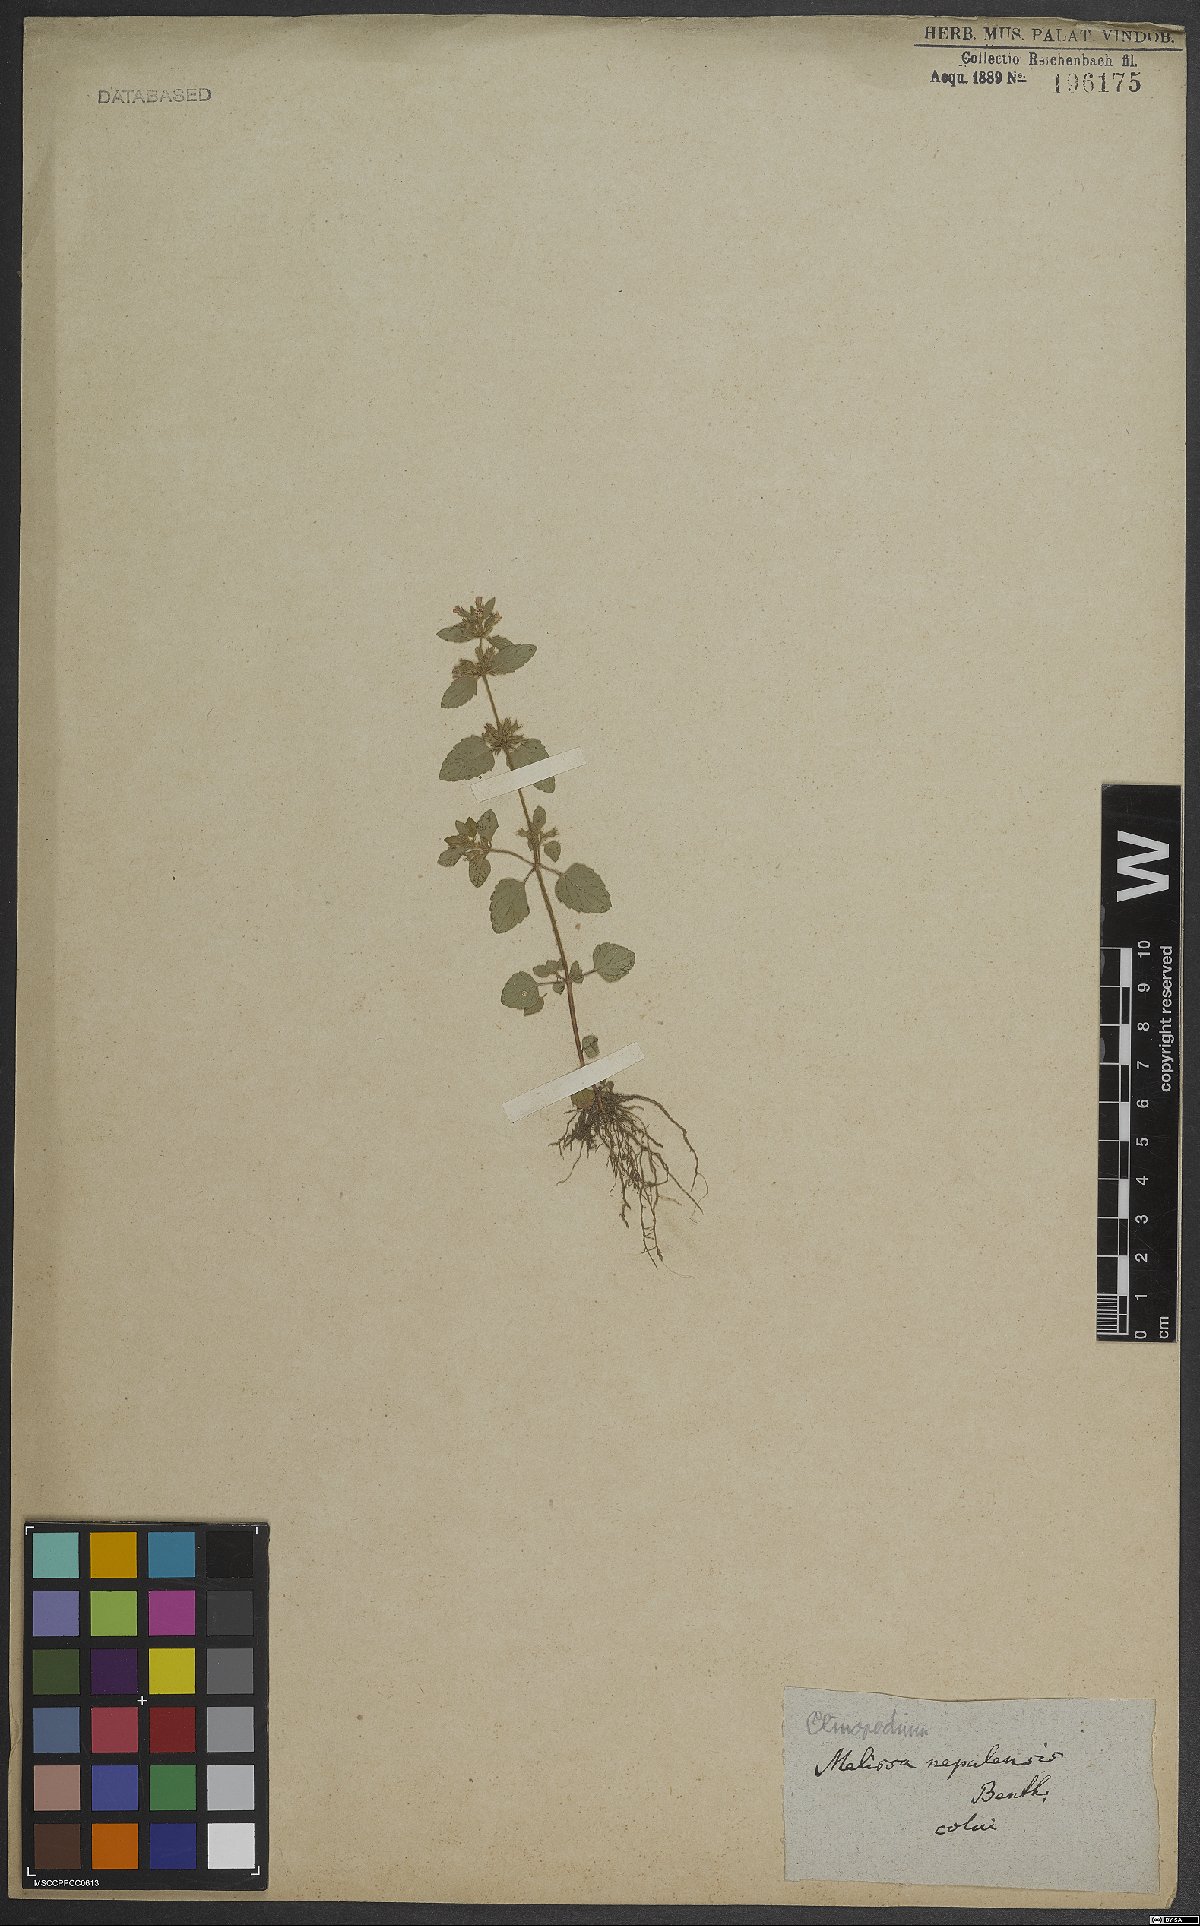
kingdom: Plantae
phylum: Tracheophyta
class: Magnoliopsida
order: Lamiales
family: Lamiaceae
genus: Calamintha
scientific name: Calamintha
